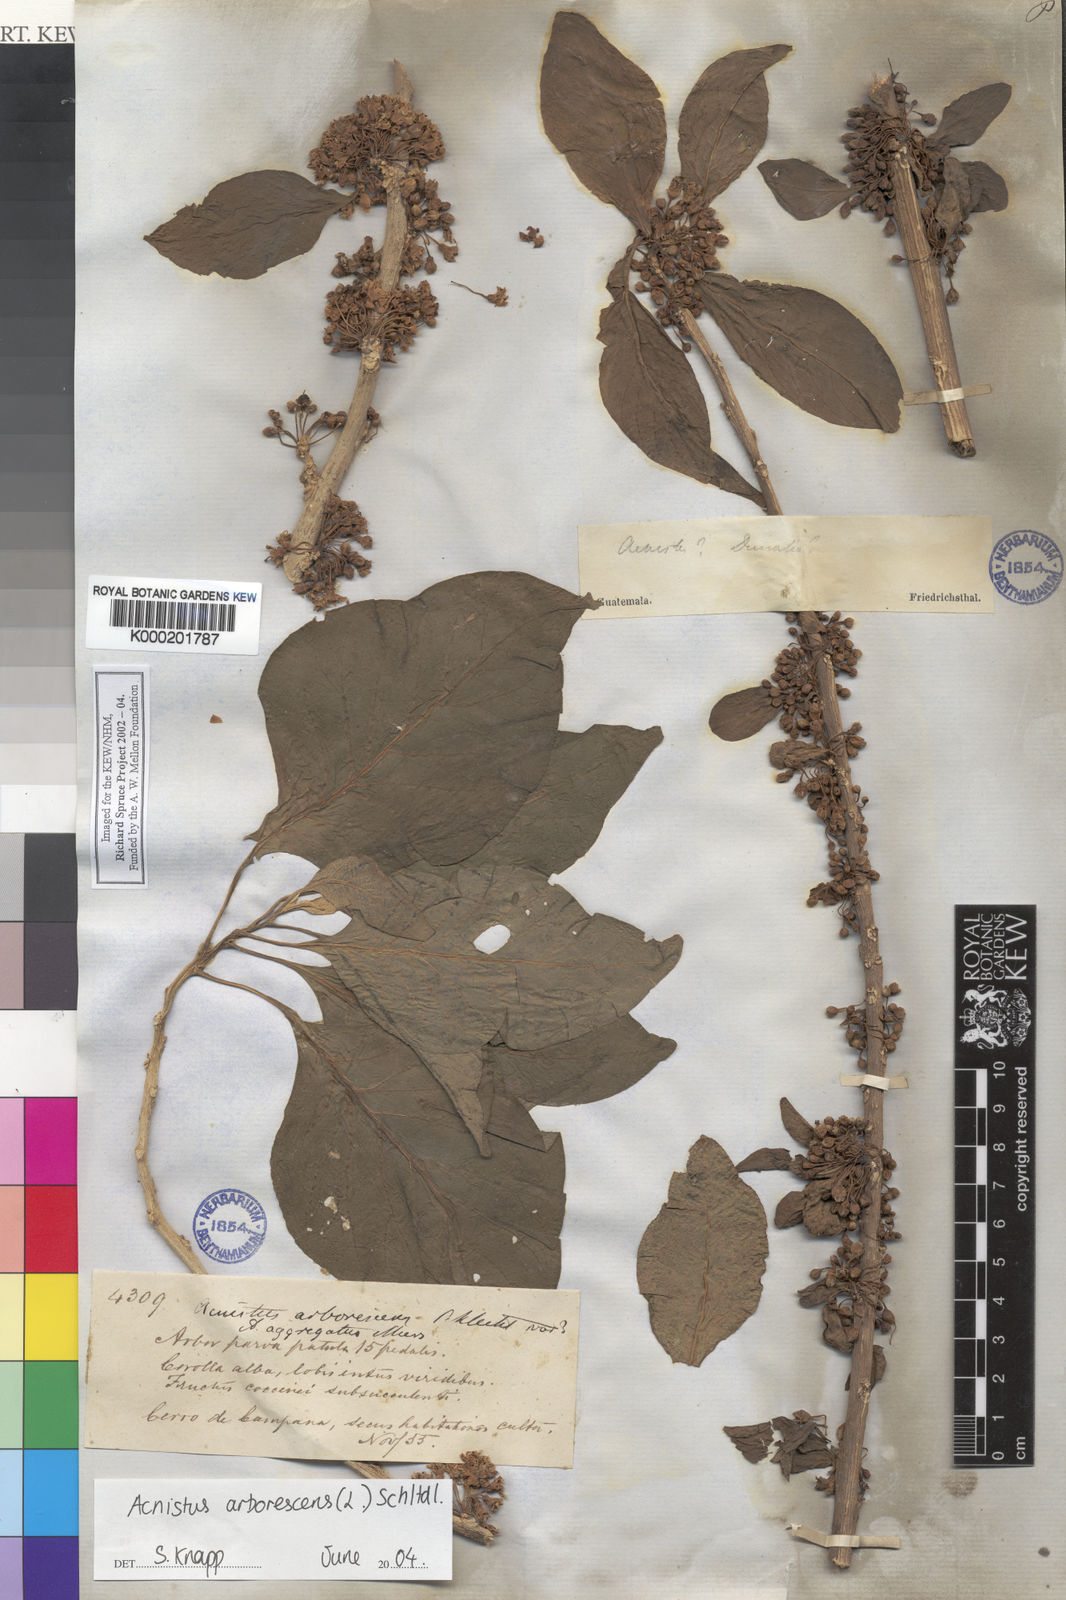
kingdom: Plantae
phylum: Tracheophyta
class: Magnoliopsida
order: Solanales
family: Solanaceae
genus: Iochroma
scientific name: Iochroma arborescens
